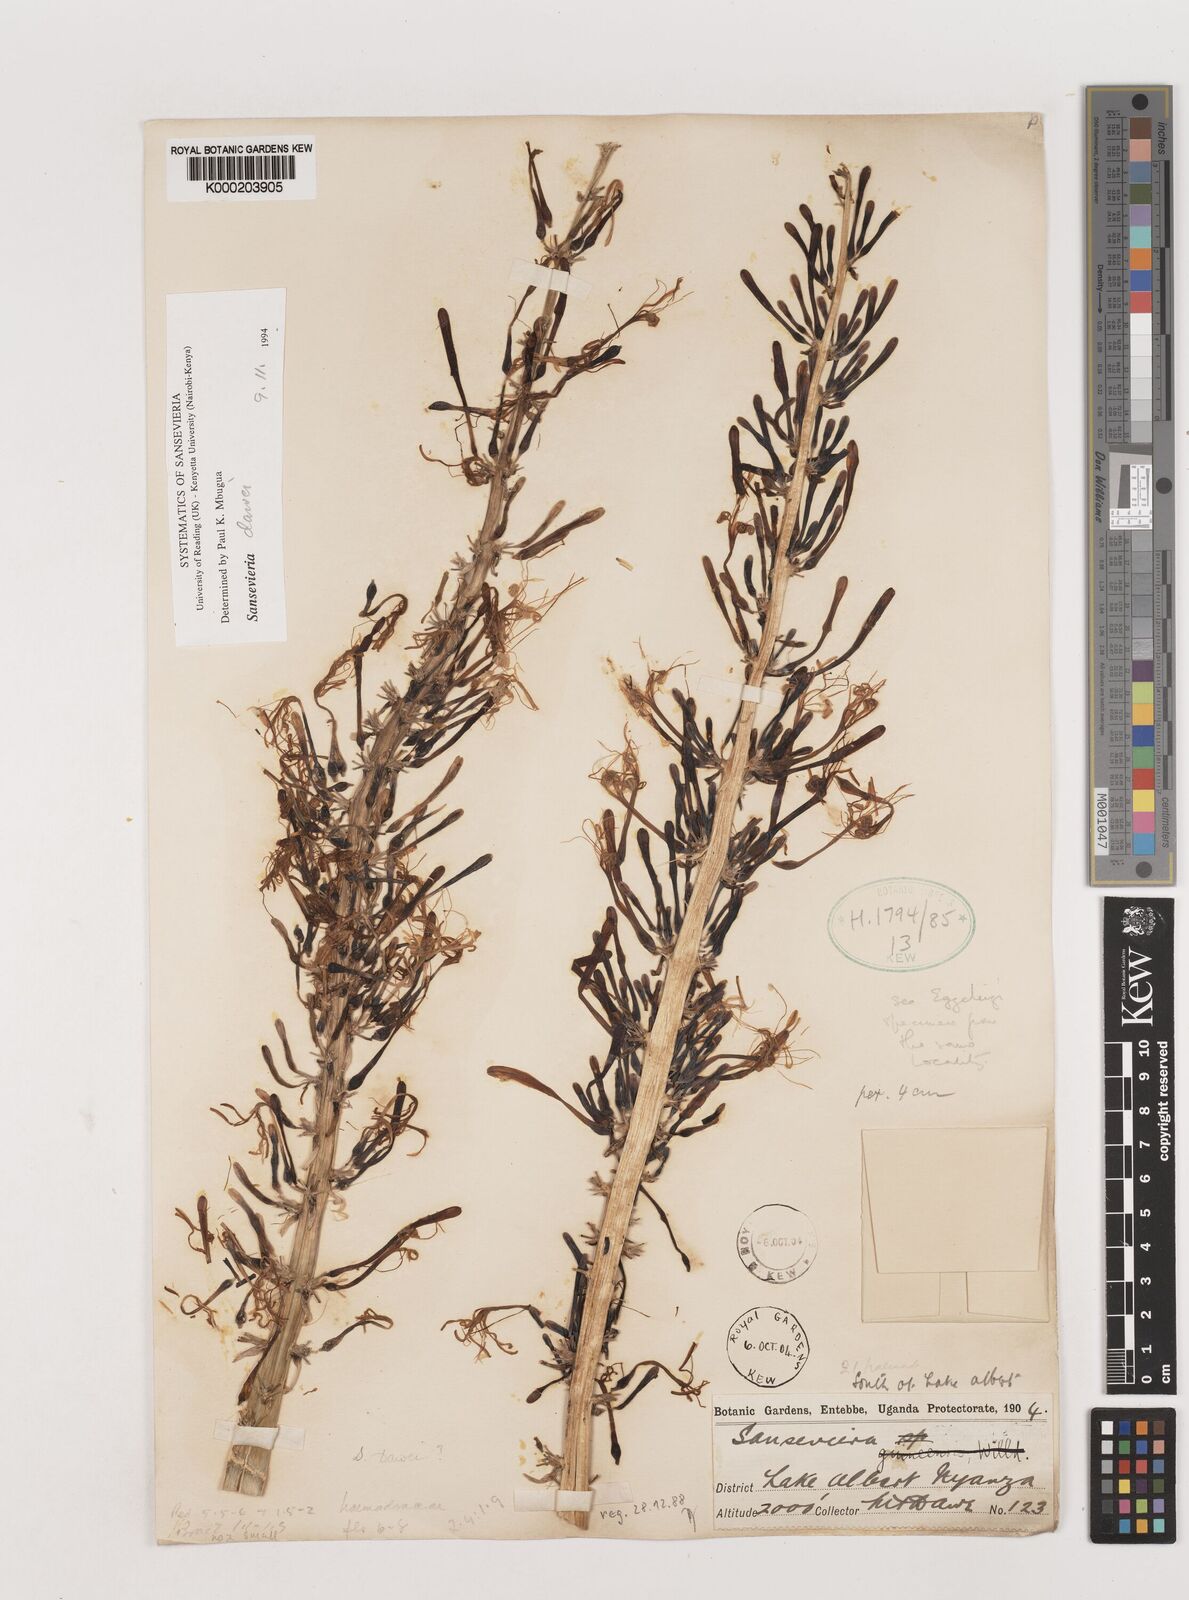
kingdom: Plantae
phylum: Tracheophyta
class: Liliopsida
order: Asparagales
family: Asparagaceae
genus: Dracaena
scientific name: Dracaena dawei
